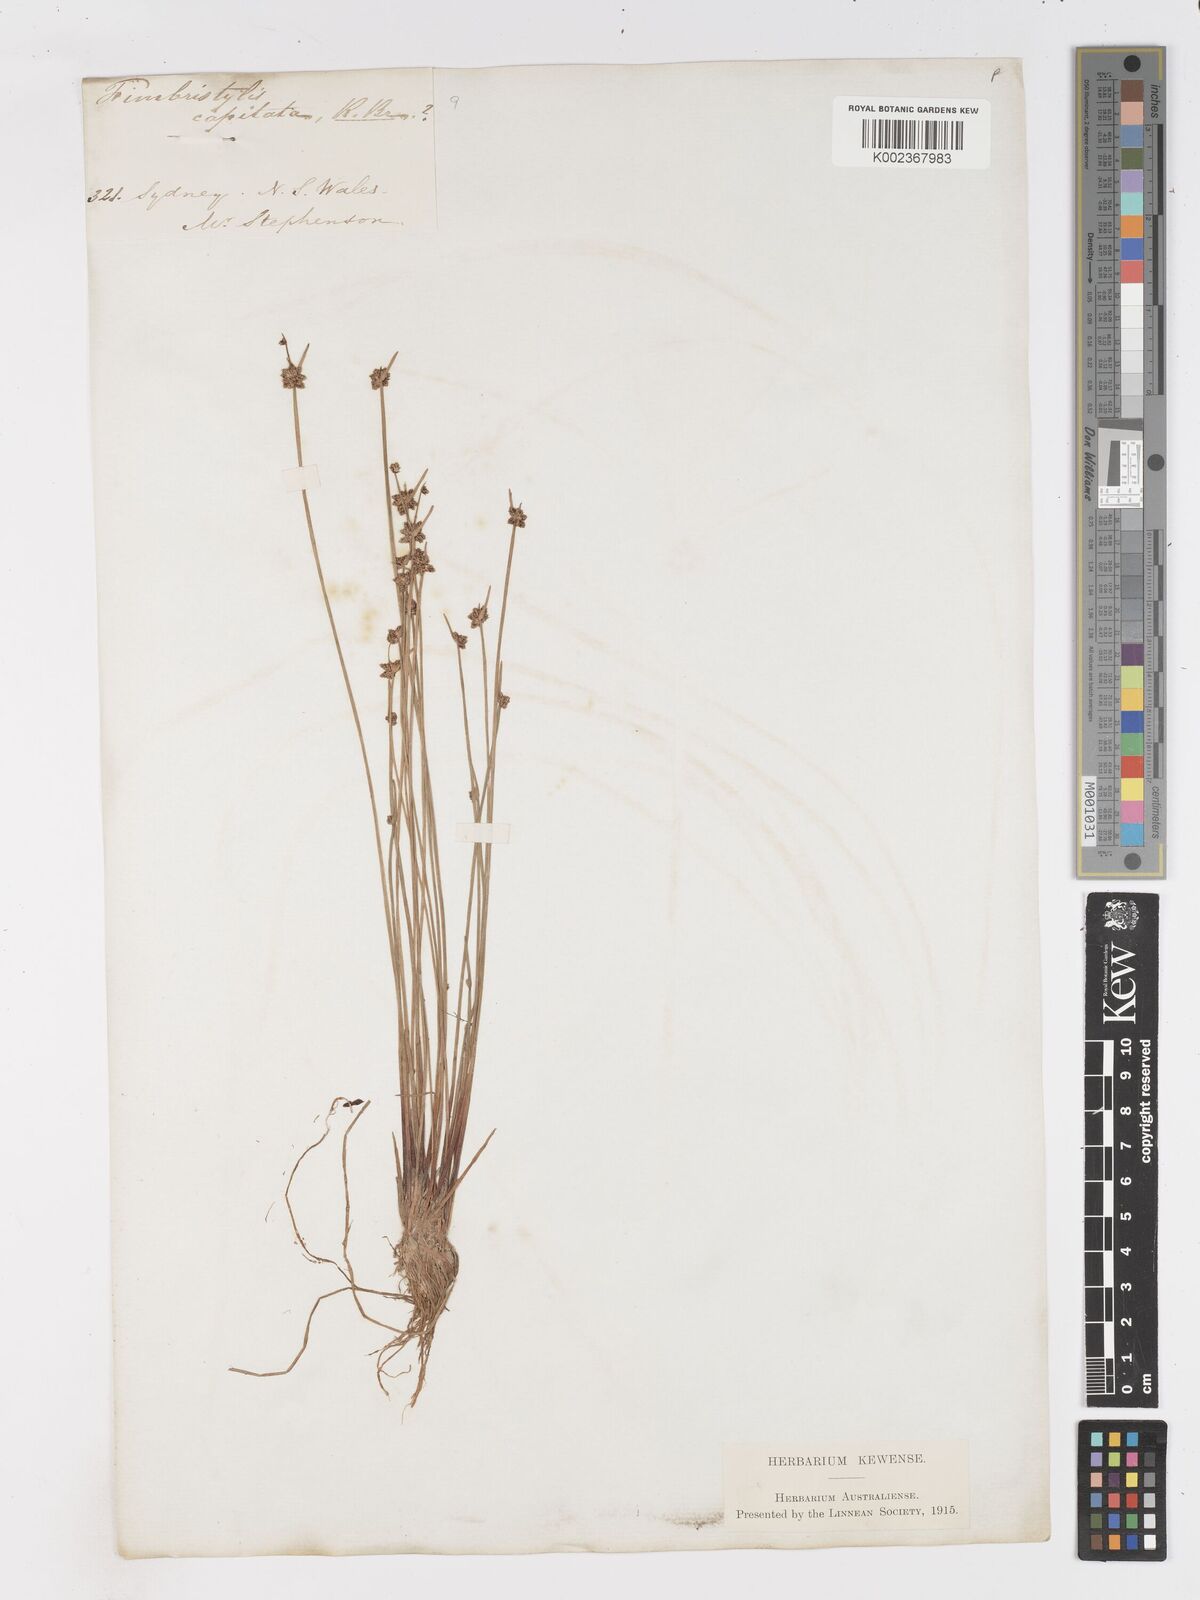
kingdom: Plantae
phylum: Tracheophyta
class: Liliopsida
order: Poales
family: Cyperaceae
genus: Isolepis
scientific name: Isolepis inundata
